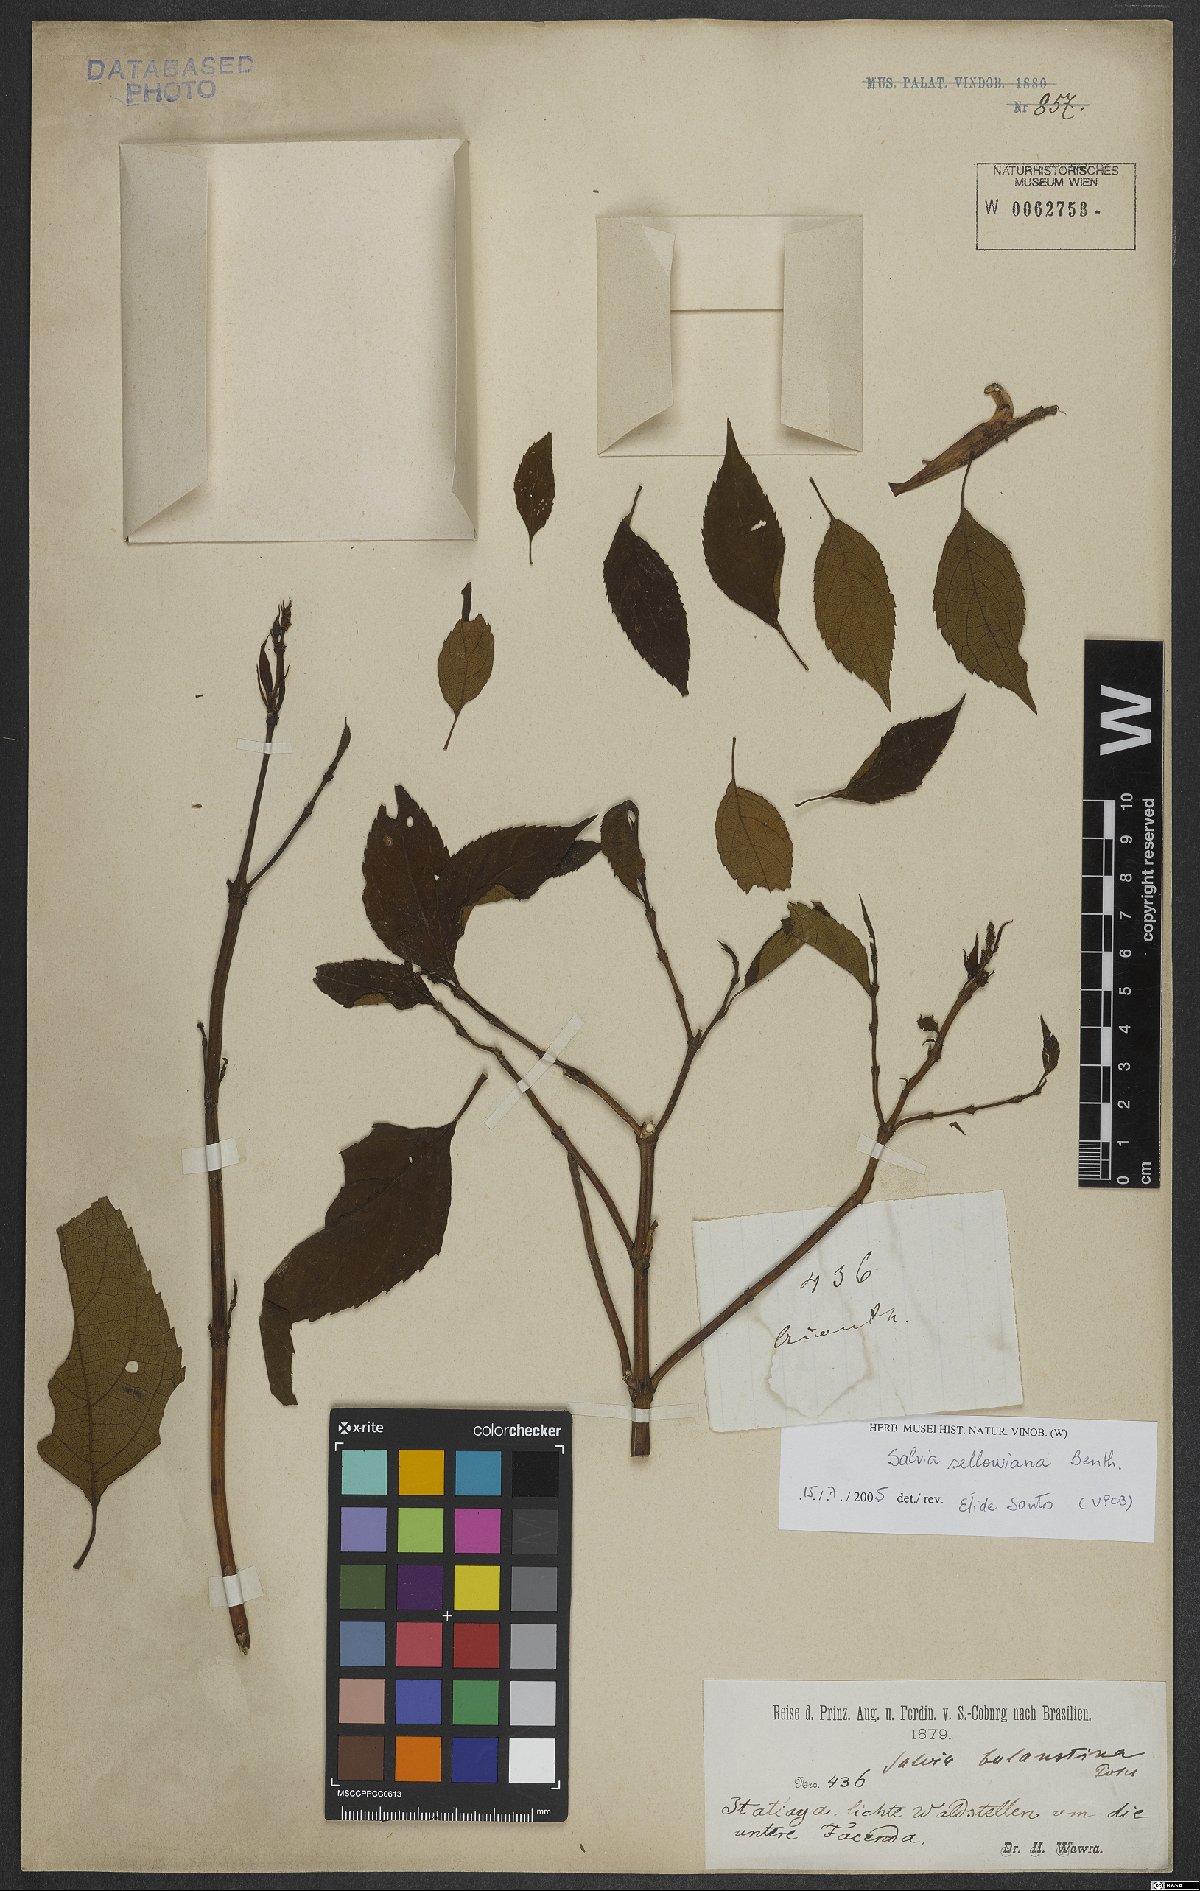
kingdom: Plantae
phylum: Tracheophyta
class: Magnoliopsida
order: Lamiales
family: Lamiaceae
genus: Salvia
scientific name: Salvia sellowiana
